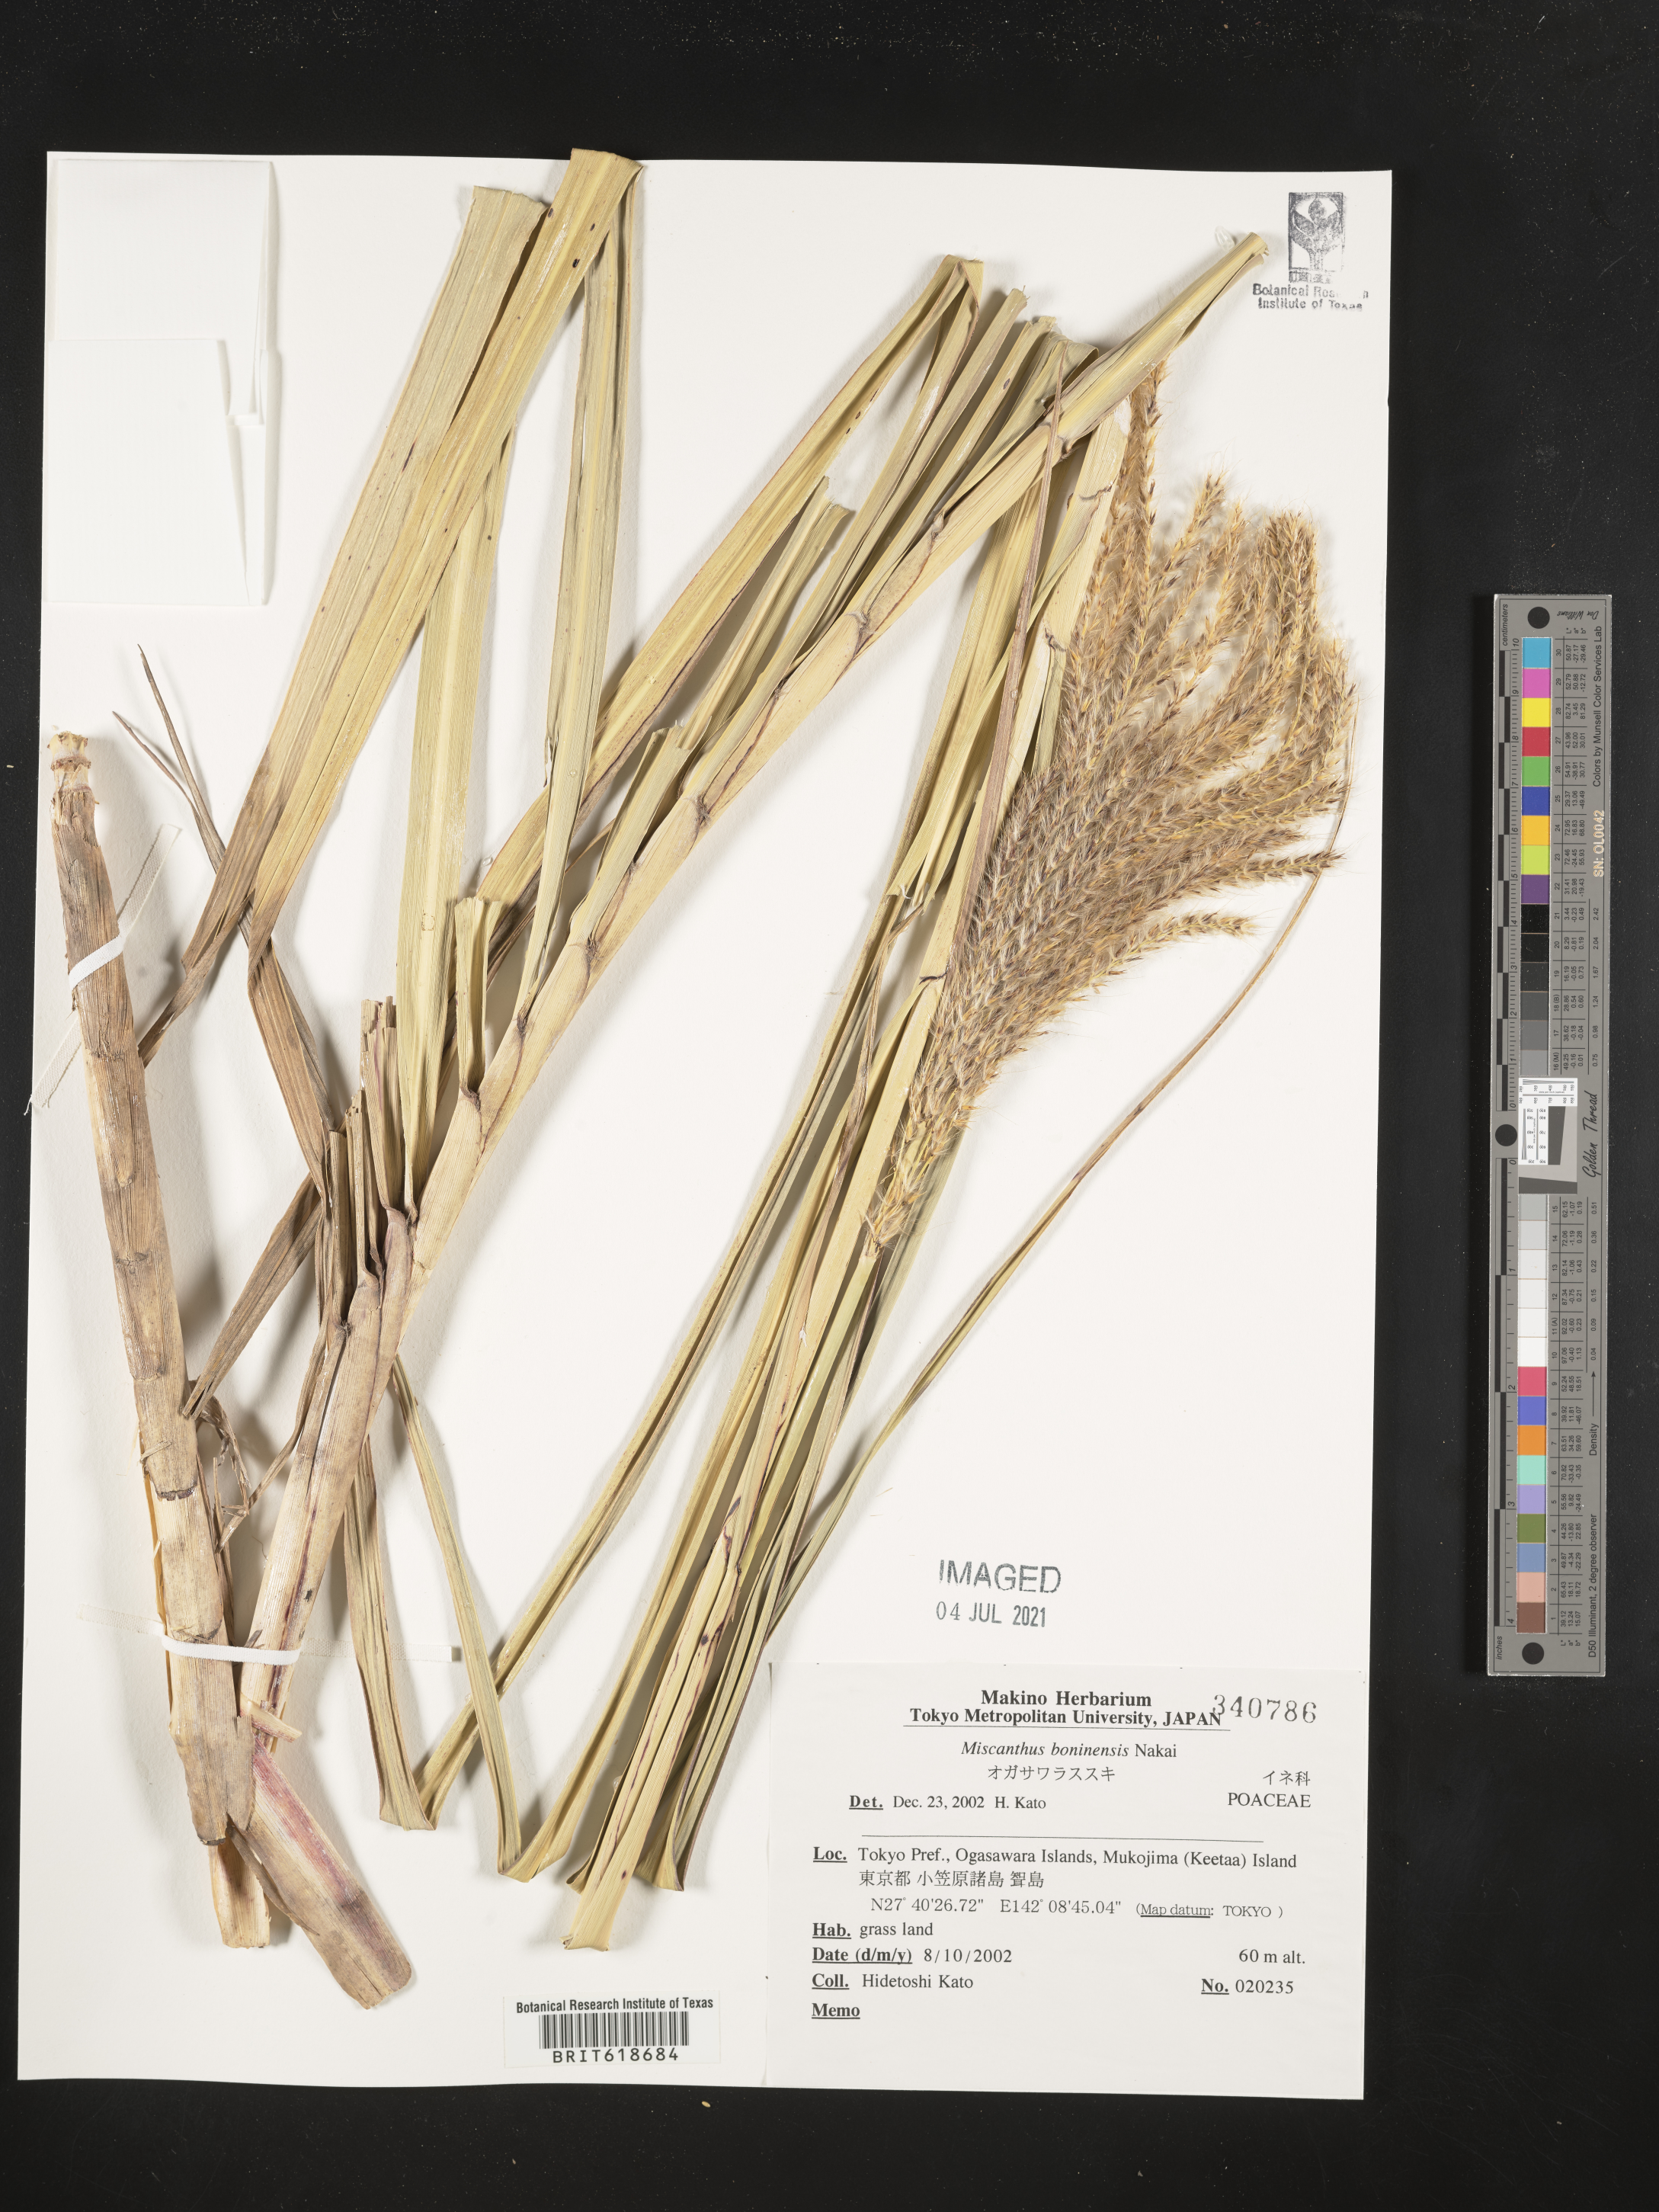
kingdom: Plantae
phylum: Tracheophyta
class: Liliopsida
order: Poales
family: Poaceae
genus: Miscanthus
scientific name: Miscanthus sinensis
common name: Chinese silvergrass
